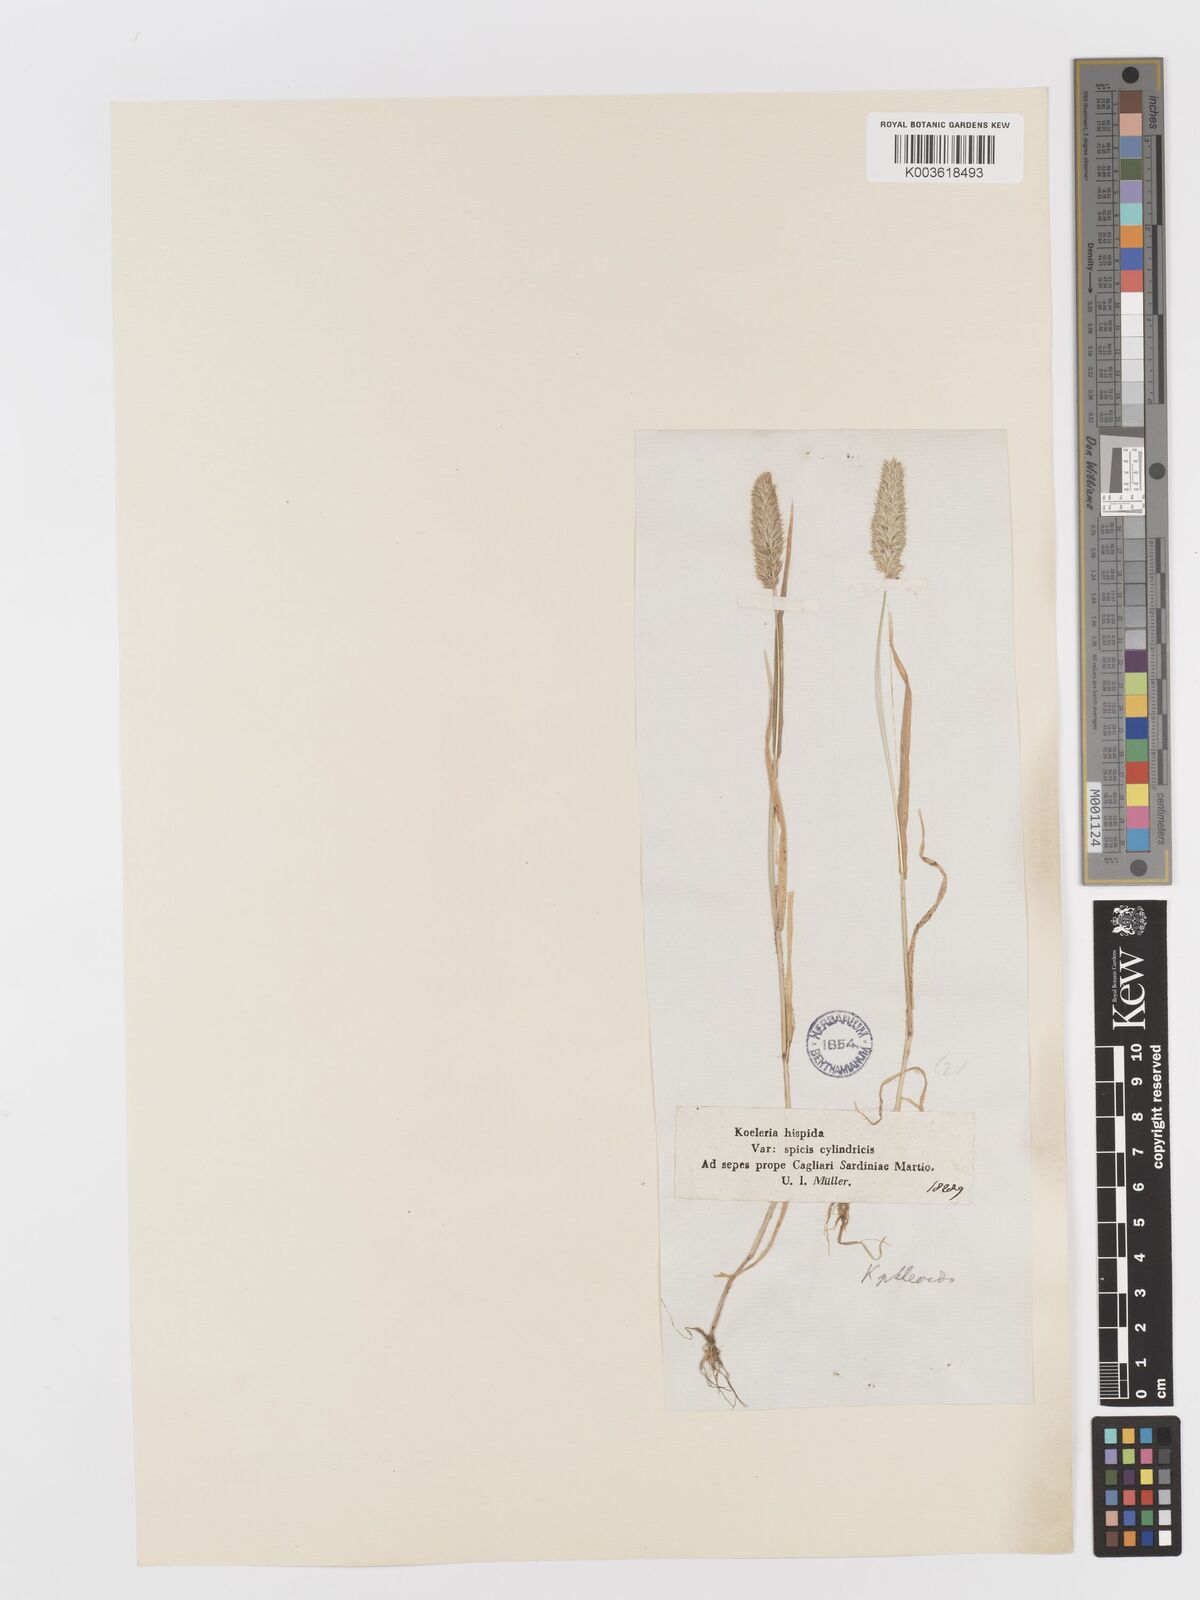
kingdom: Plantae
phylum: Tracheophyta
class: Liliopsida
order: Poales
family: Poaceae
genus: Rostraria
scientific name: Rostraria cristata
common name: Mediterranean hair-grass
